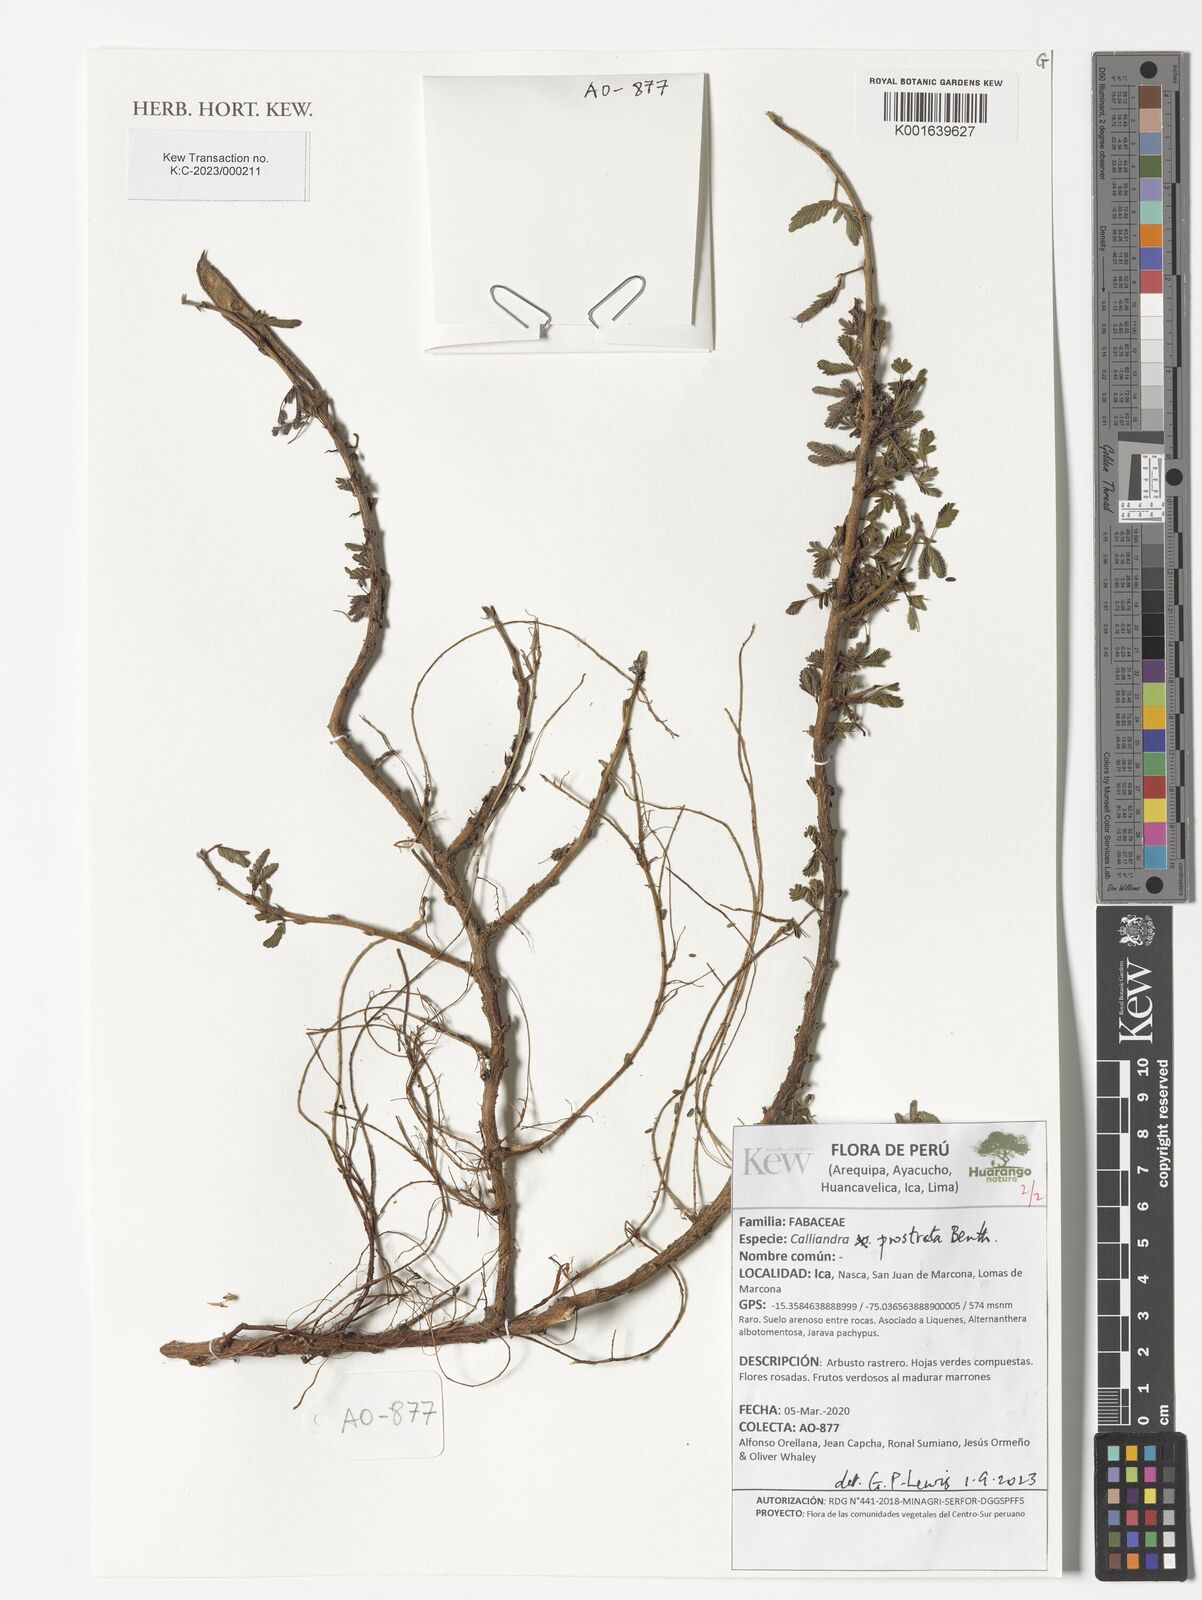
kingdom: Plantae
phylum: Tracheophyta
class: Magnoliopsida
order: Fabales
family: Fabaceae
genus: Calliandra
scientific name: Calliandra taxifolia
